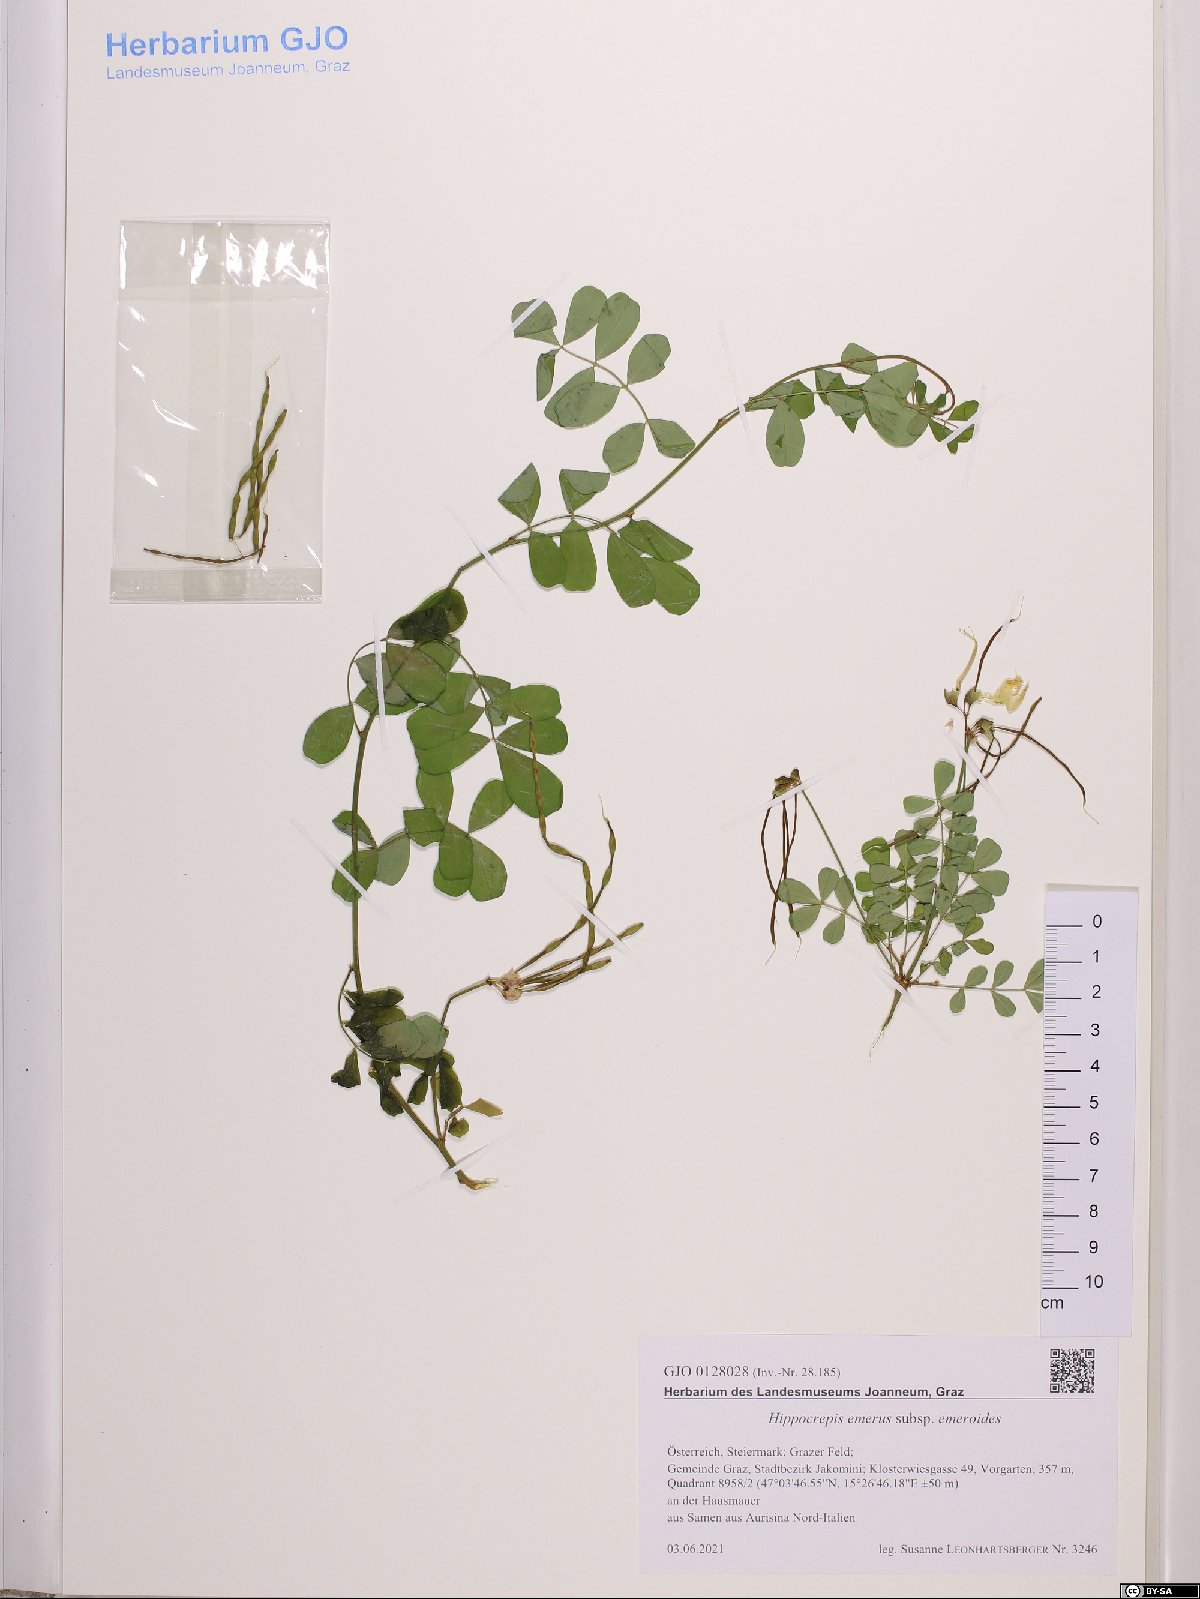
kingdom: Plantae
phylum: Tracheophyta
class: Magnoliopsida
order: Fabales
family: Fabaceae
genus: Hippocrepis
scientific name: Hippocrepis emerus
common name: Scorpion senna
